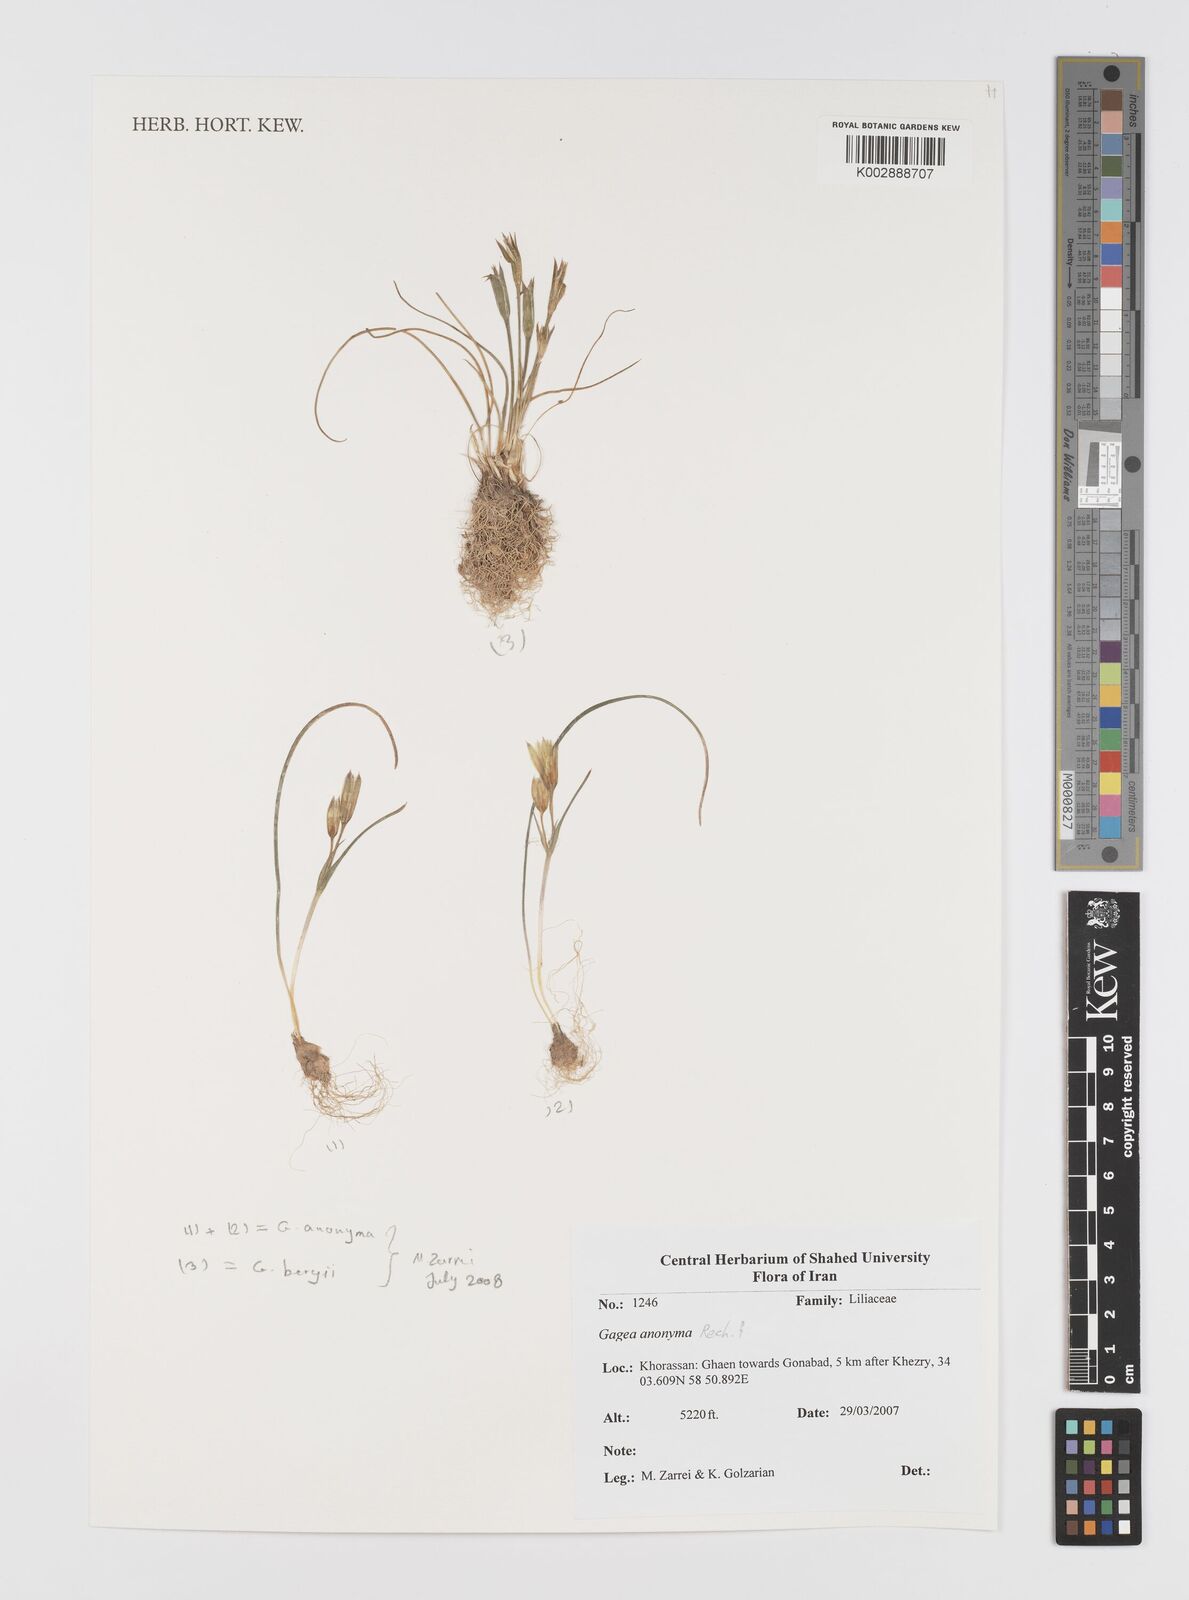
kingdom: Plantae
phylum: Tracheophyta
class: Liliopsida
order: Liliales
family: Liliaceae
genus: Gagea
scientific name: Gagea setifolia
